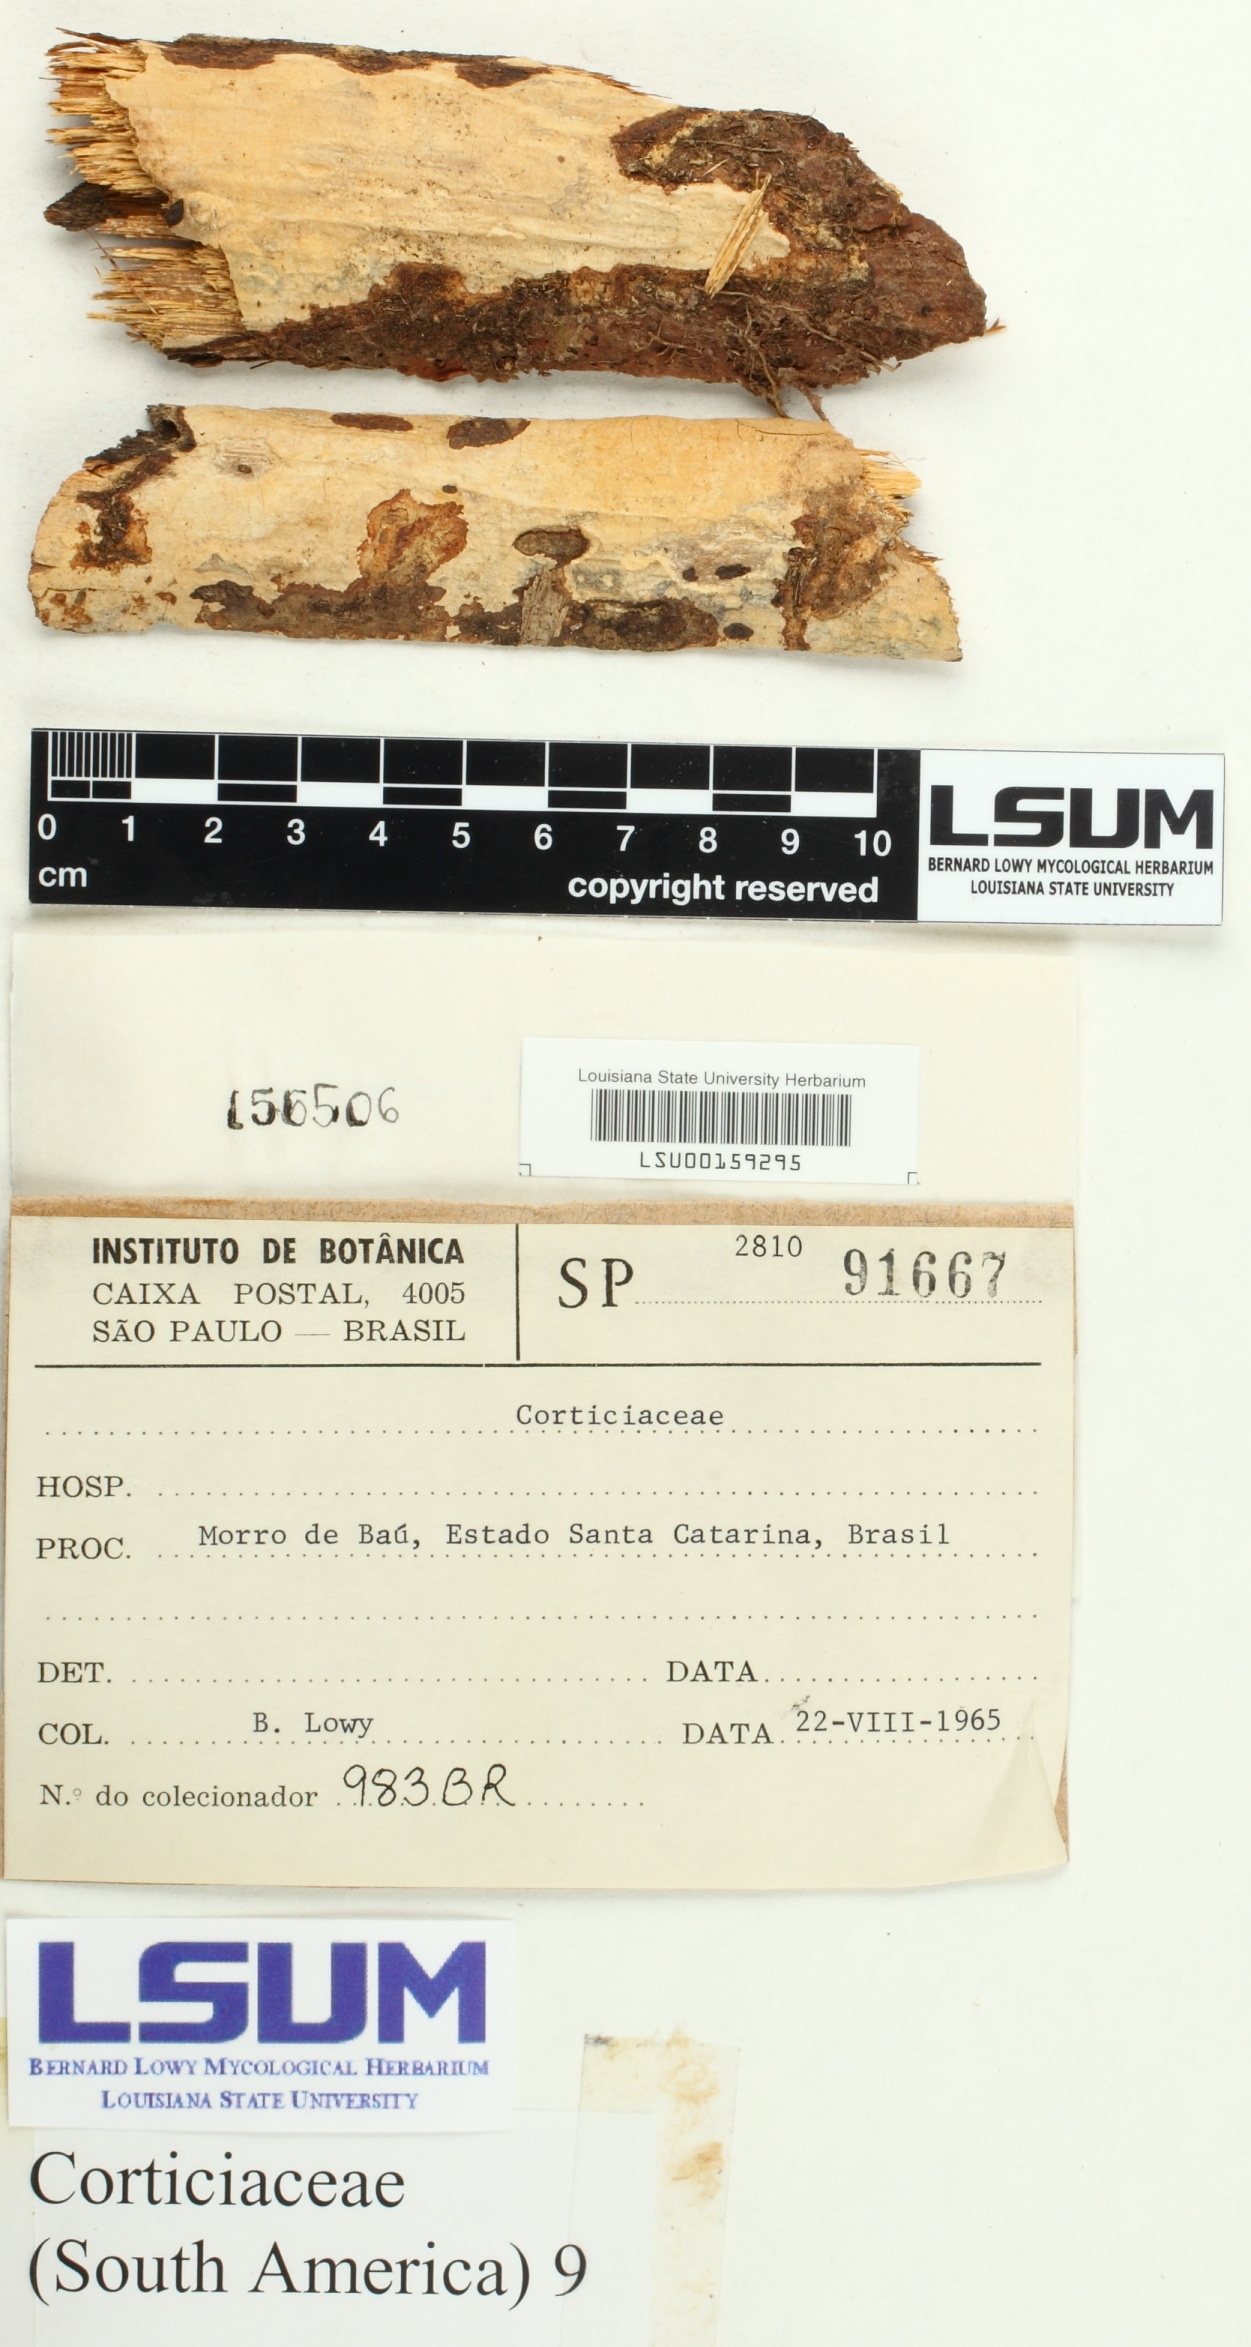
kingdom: Fungi
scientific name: Fungi
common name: Fungi
